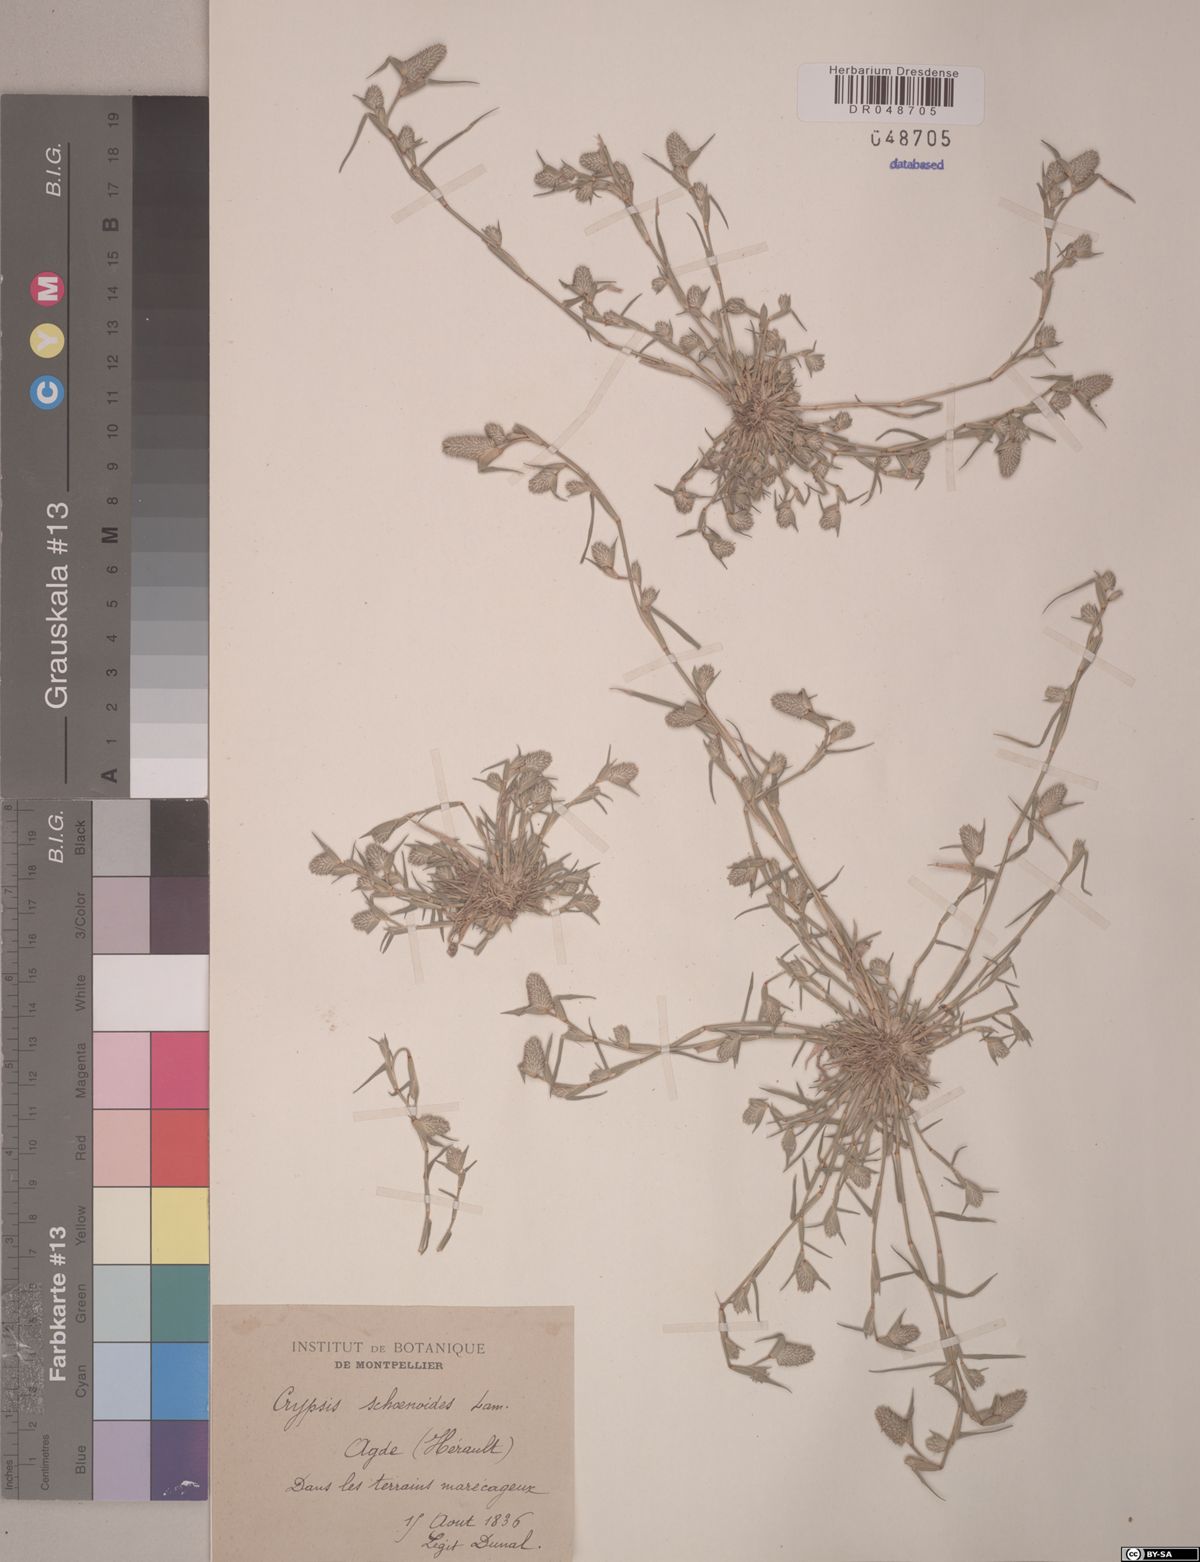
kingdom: Plantae
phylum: Tracheophyta
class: Liliopsida
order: Poales
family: Poaceae
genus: Sporobolus
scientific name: Sporobolus schoenoides
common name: Rush-like timothy
